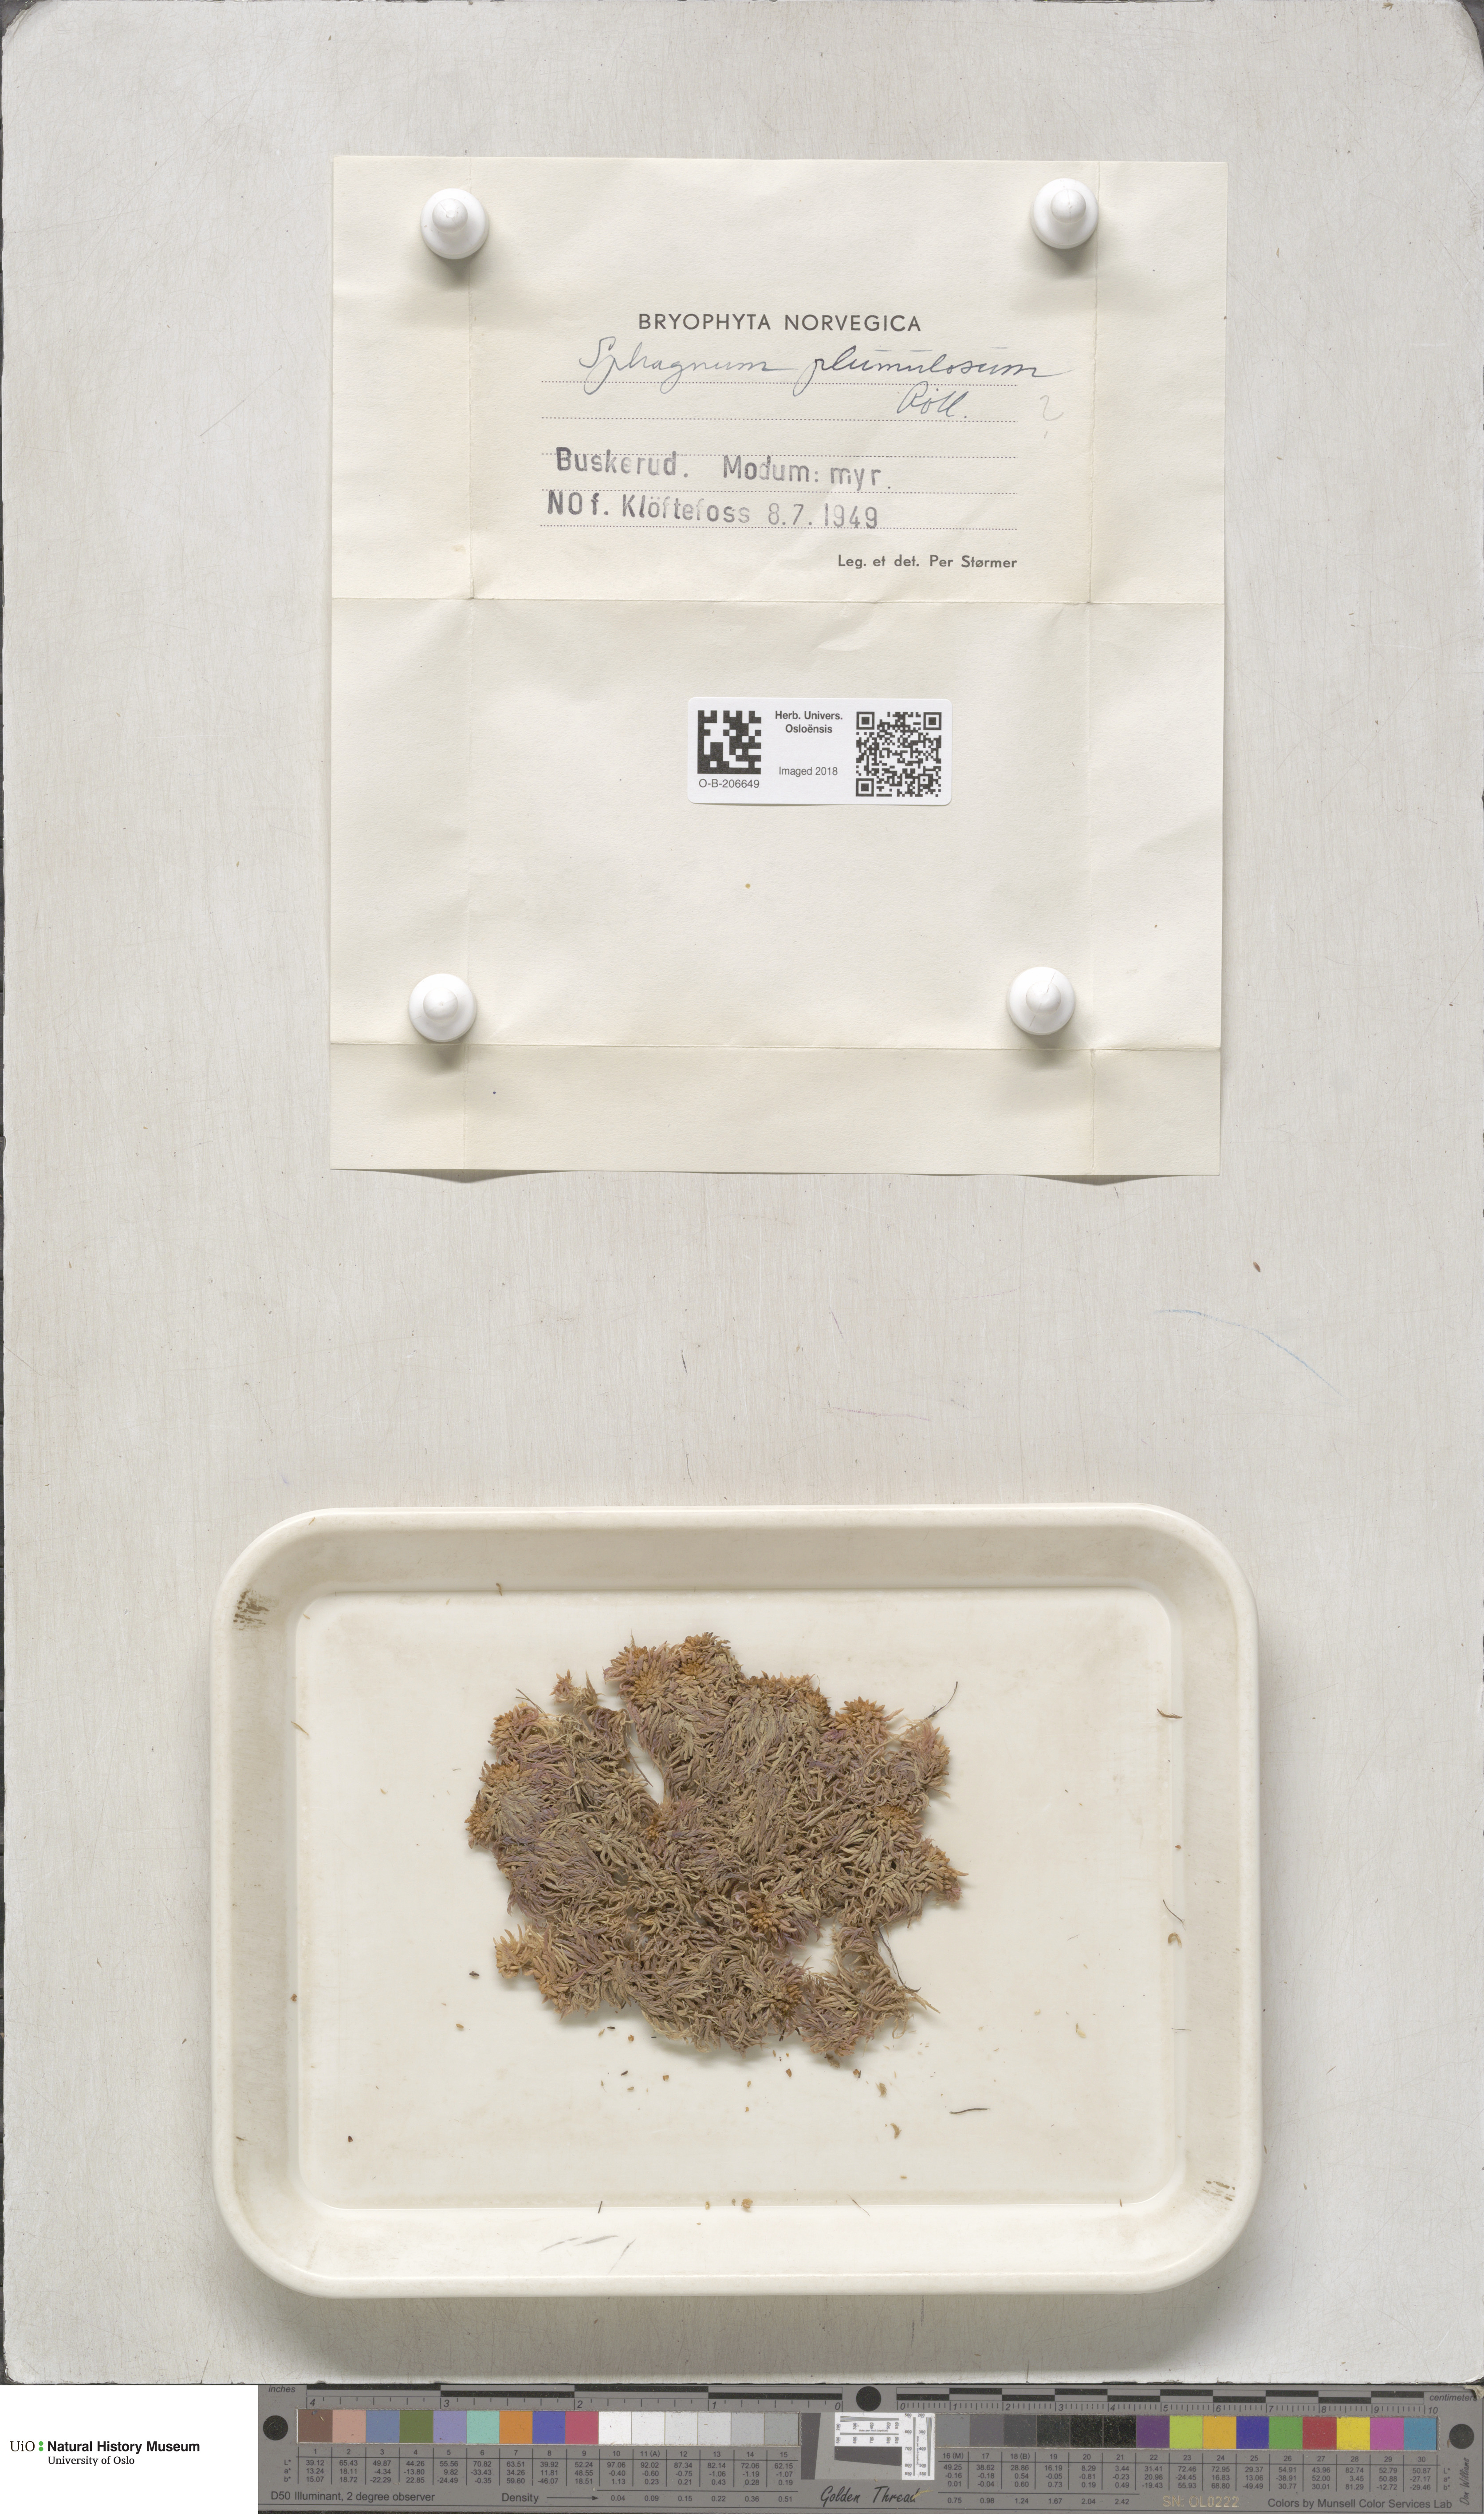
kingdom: Plantae
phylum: Bryophyta
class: Sphagnopsida
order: Sphagnales
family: Sphagnaceae
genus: Sphagnum
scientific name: Sphagnum subnitens
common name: Lustrous bog-moss
